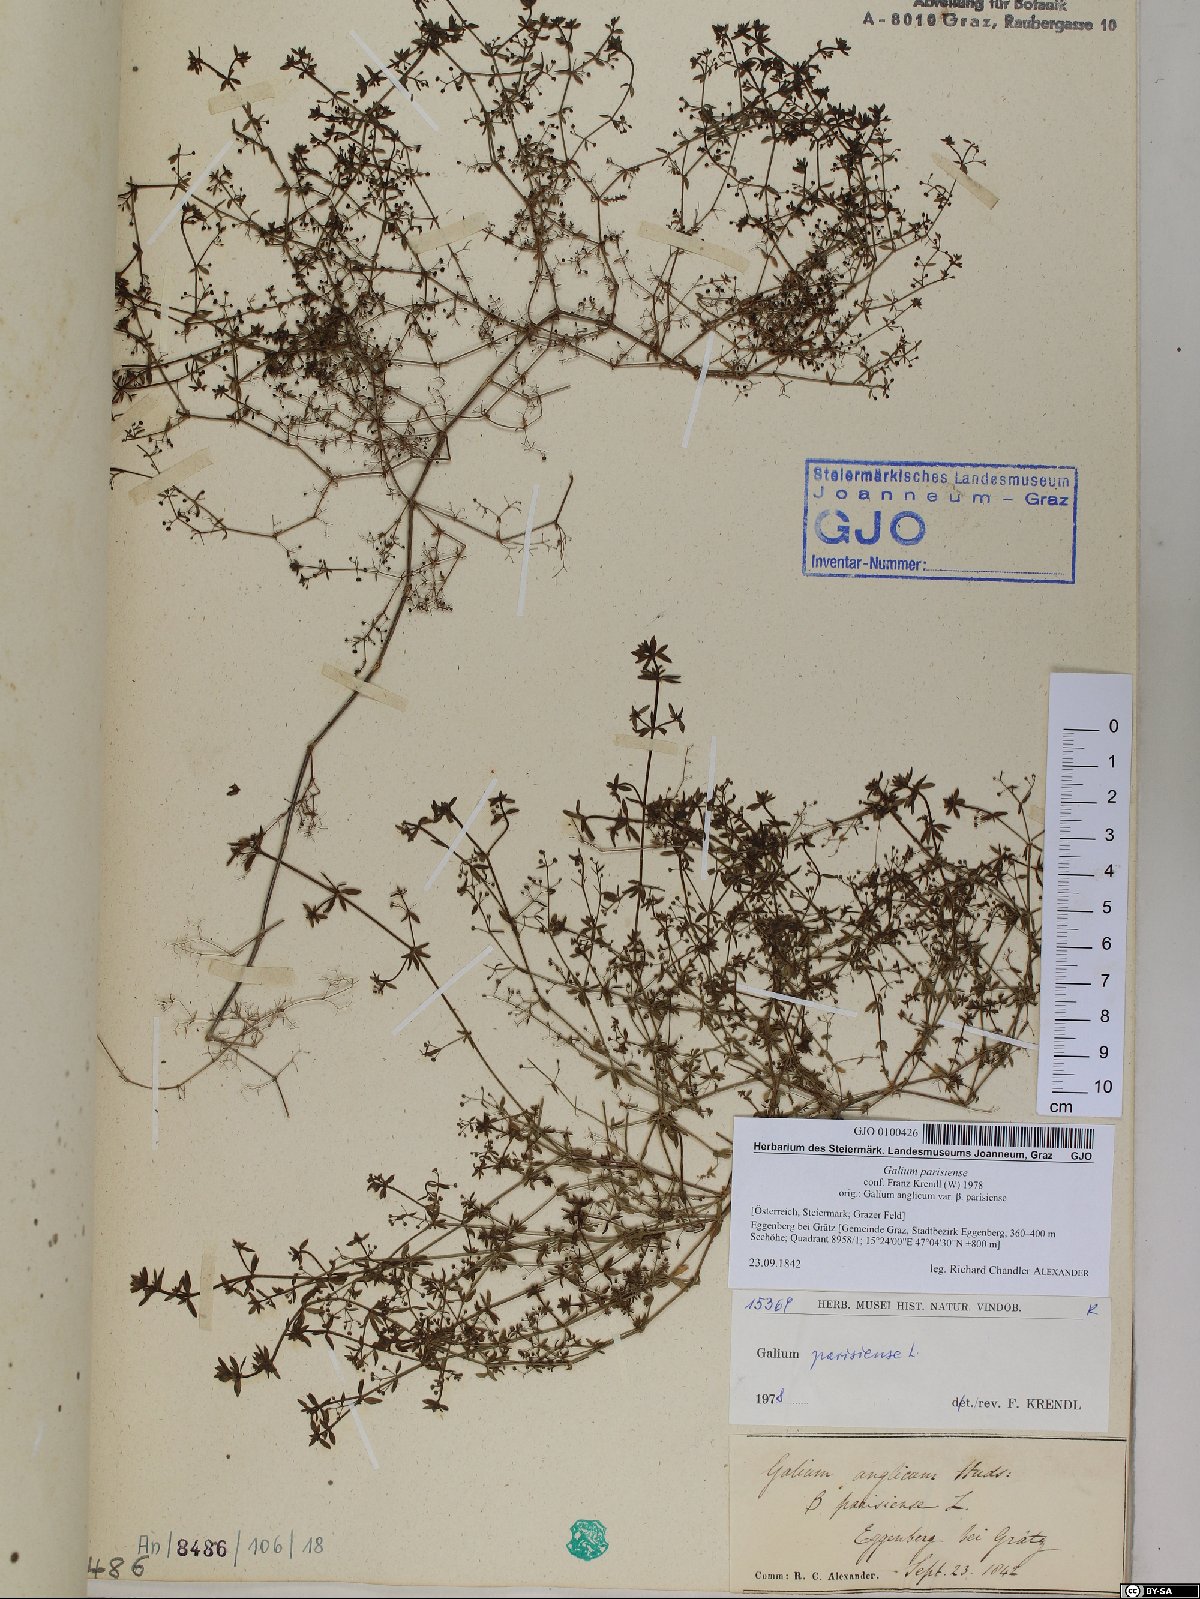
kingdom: Plantae
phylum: Tracheophyta
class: Magnoliopsida
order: Gentianales
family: Rubiaceae
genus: Galium
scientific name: Galium parisiense
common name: Wall bedstraw
